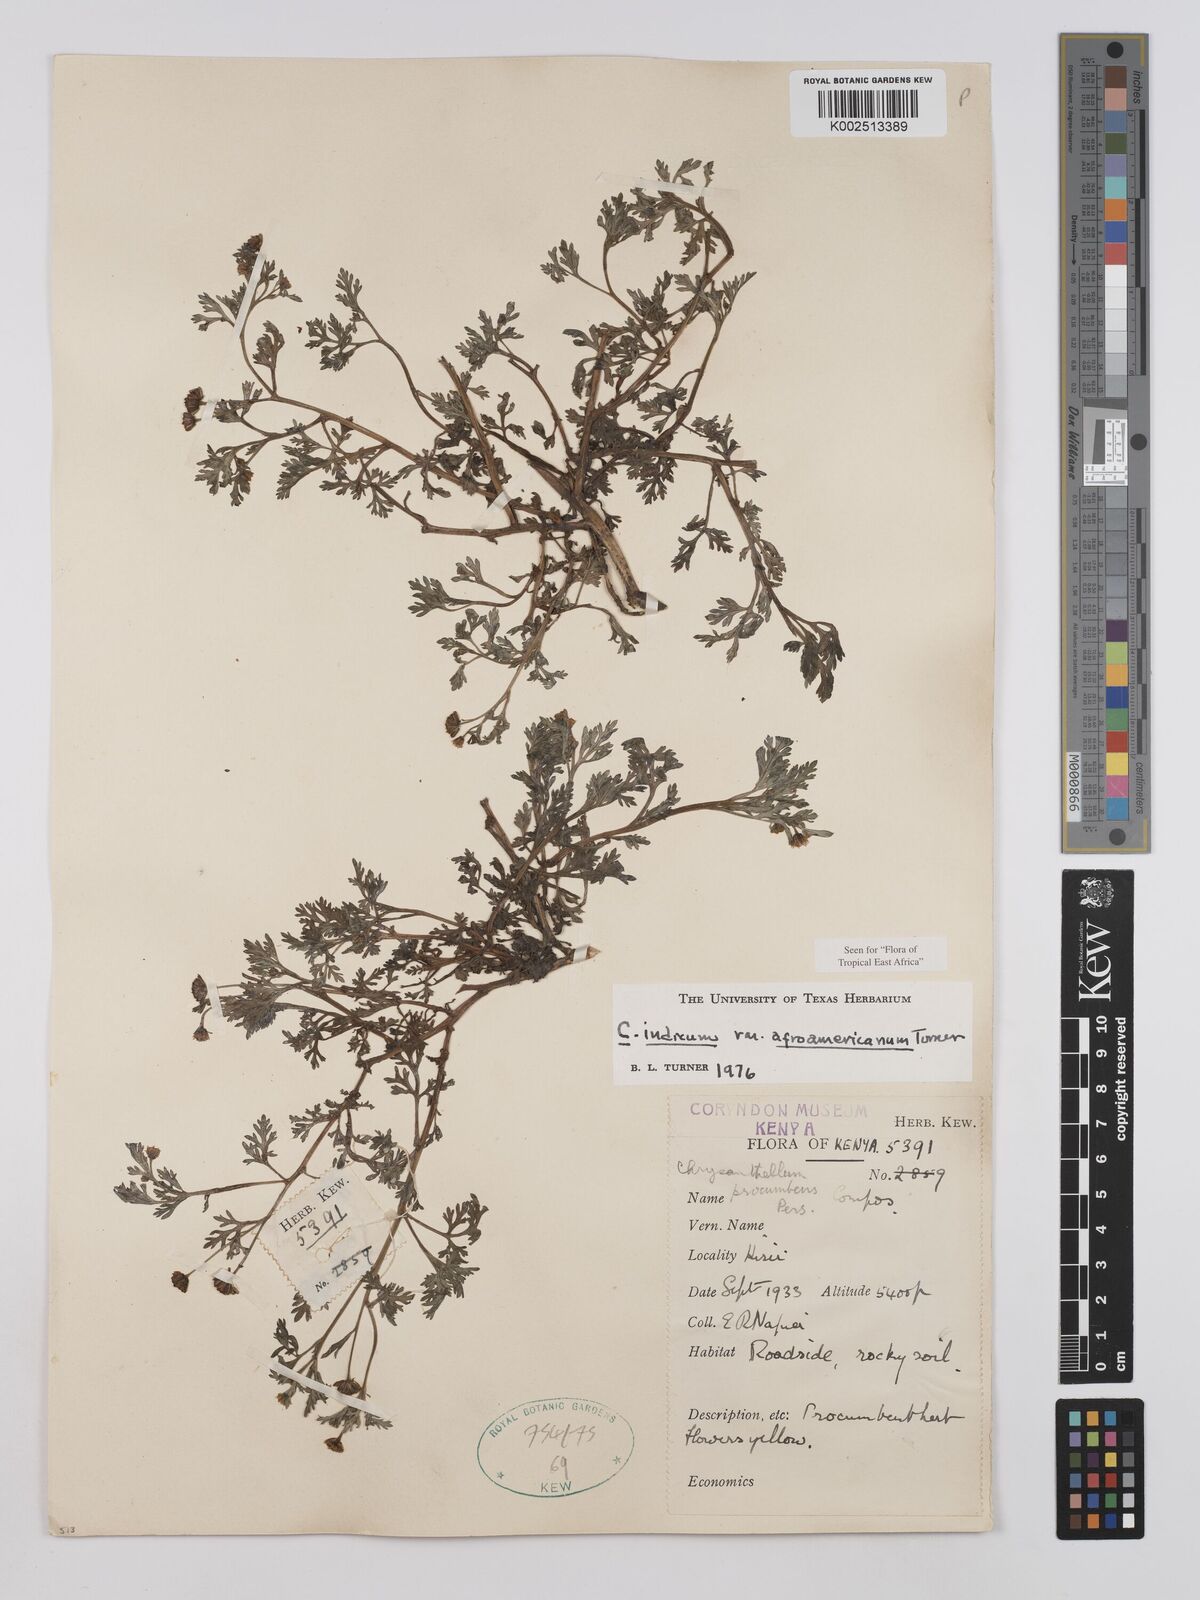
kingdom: Plantae
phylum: Tracheophyta
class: Magnoliopsida
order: Asterales
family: Asteraceae
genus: Chrysanthellum
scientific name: Chrysanthellum indicum
